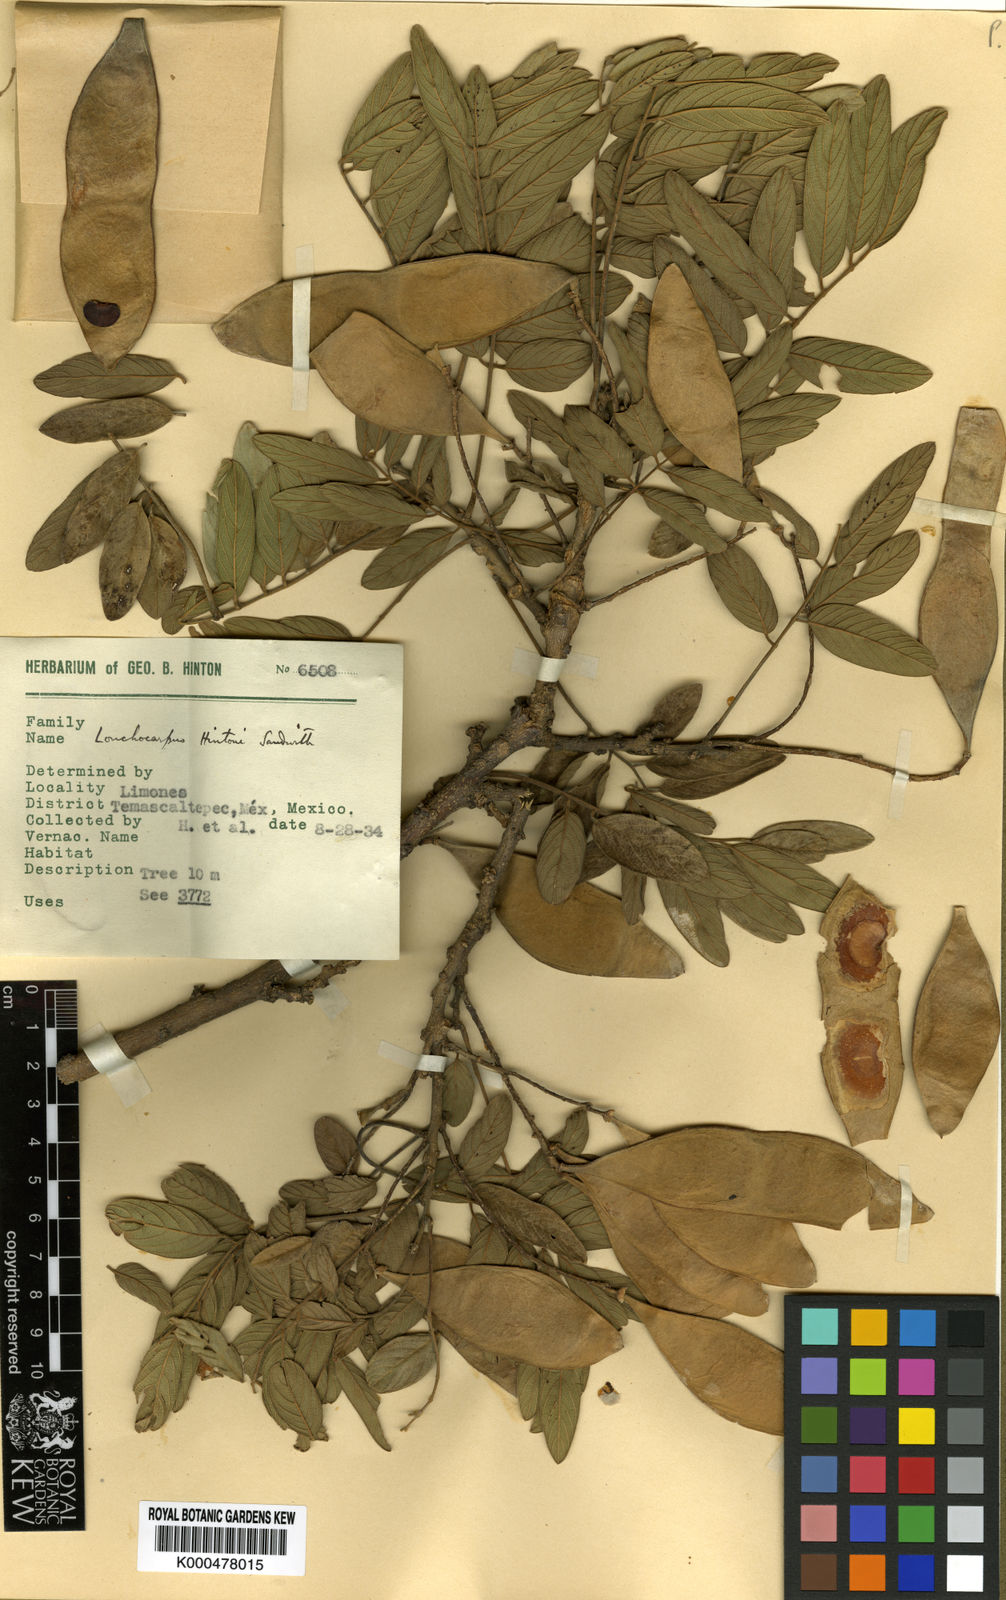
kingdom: Plantae
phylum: Tracheophyta
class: Magnoliopsida
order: Fabales
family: Fabaceae
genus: Lonchocarpus
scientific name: Lonchocarpus hintonii
